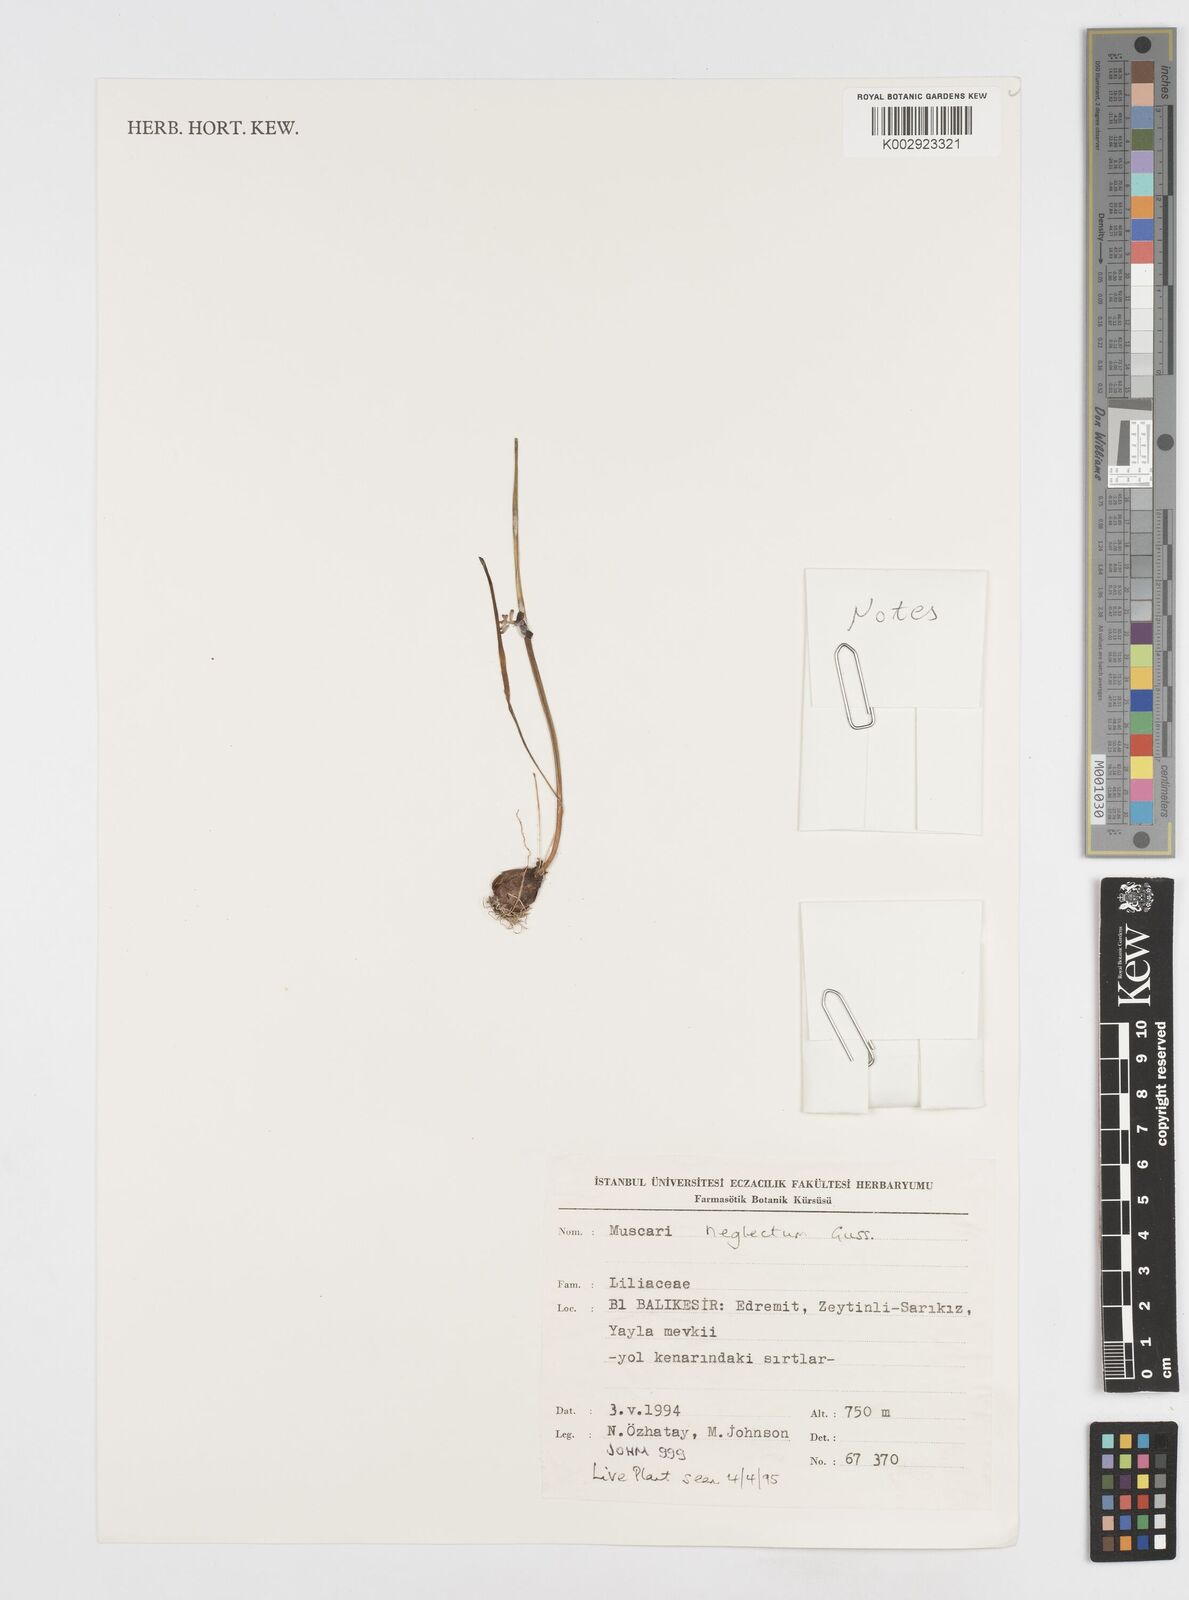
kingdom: Plantae
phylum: Tracheophyta
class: Liliopsida
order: Asparagales
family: Asparagaceae
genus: Muscari
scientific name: Muscari neglectum
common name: Grape-hyacinth
